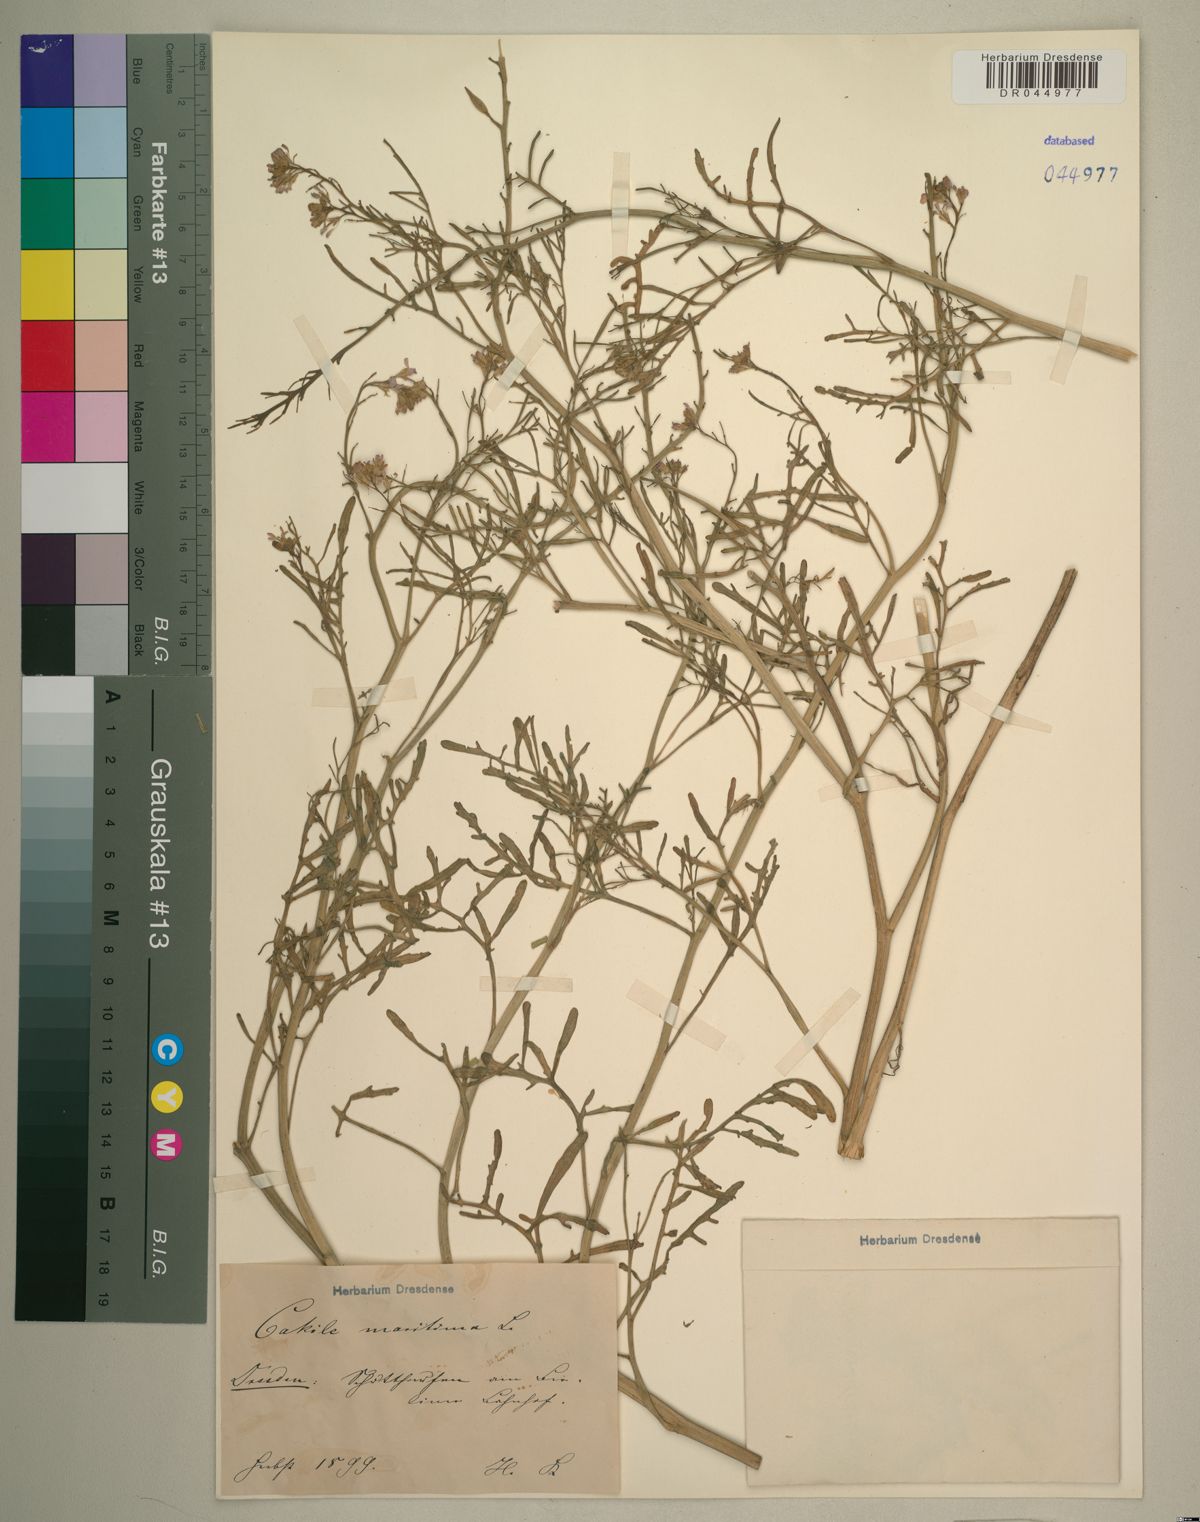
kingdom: Plantae
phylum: Tracheophyta
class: Magnoliopsida
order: Brassicales
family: Brassicaceae
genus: Cakile
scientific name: Cakile maritima
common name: Sea rocket
